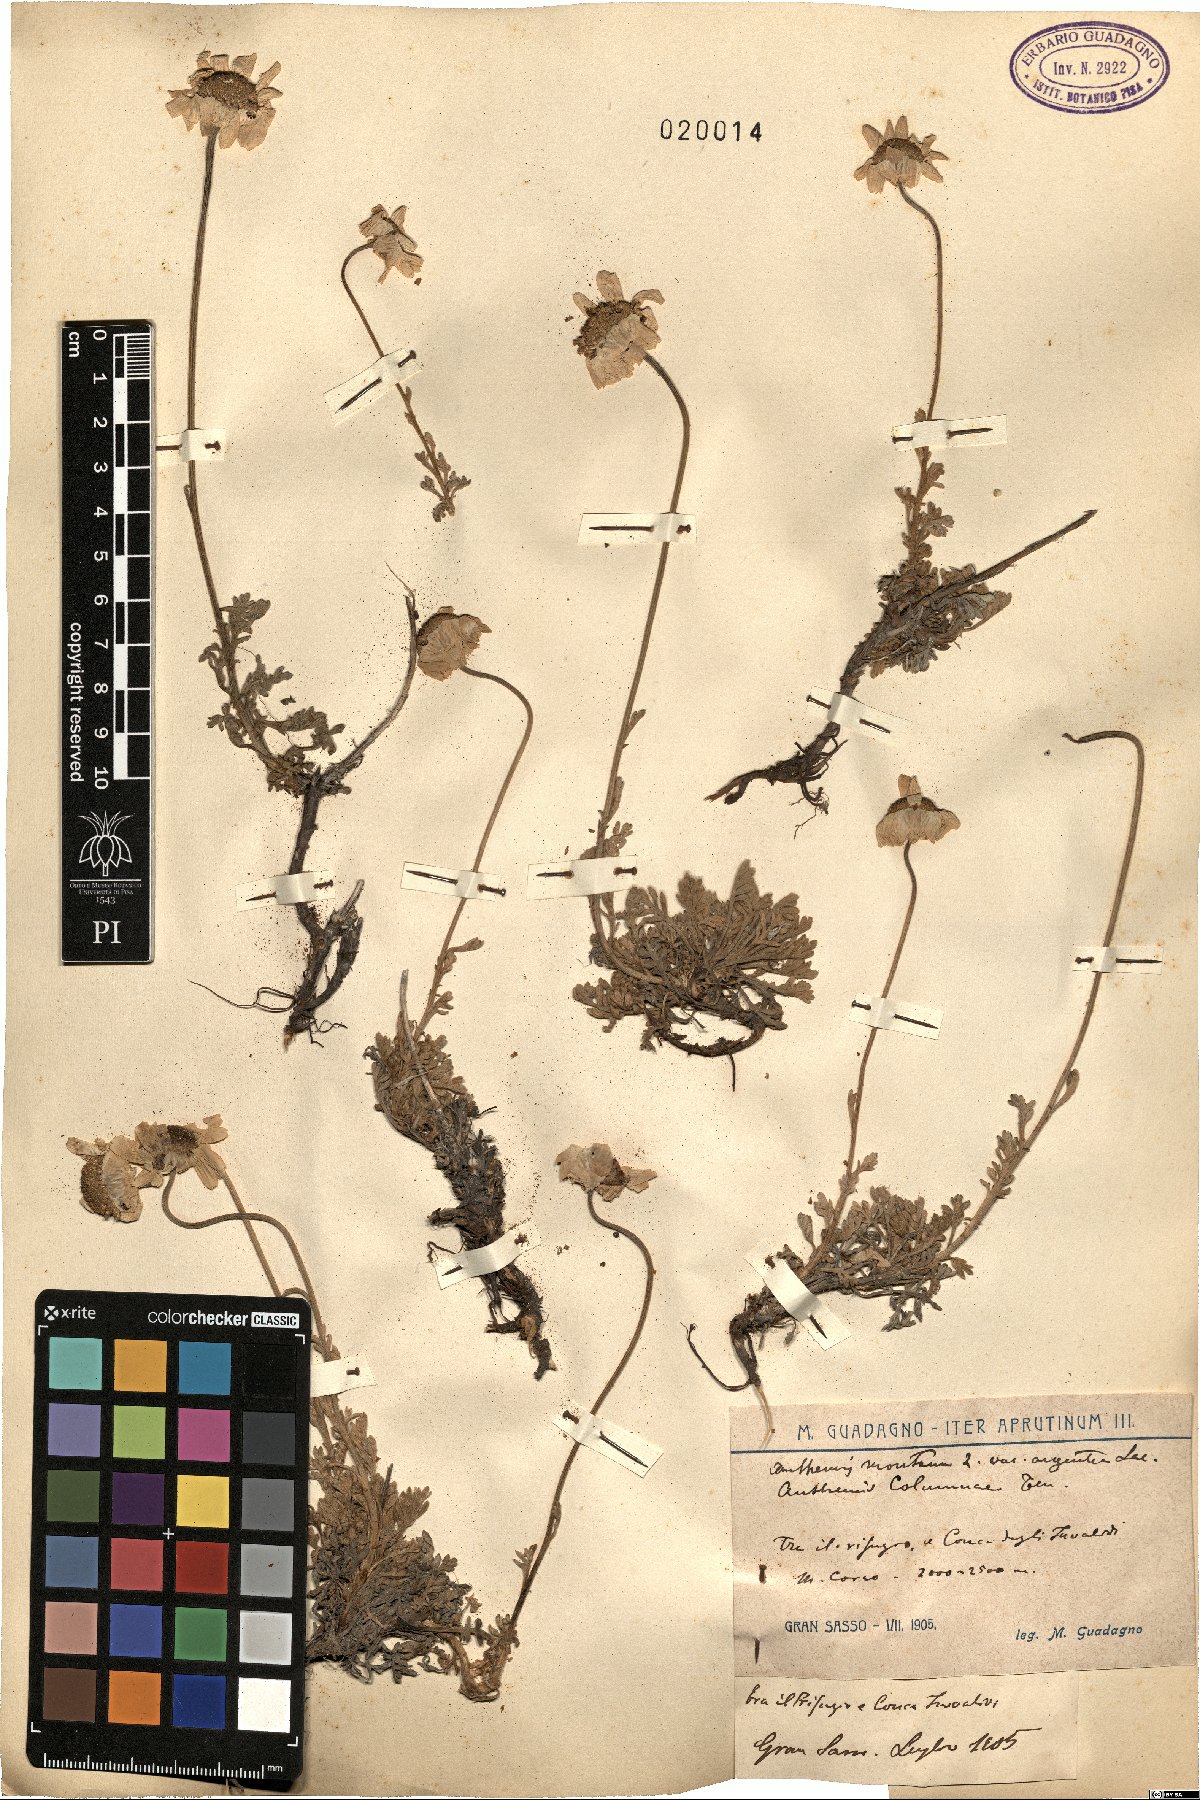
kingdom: Plantae
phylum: Tracheophyta
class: Magnoliopsida
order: Asterales
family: Asteraceae
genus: Anthemis
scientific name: Anthemis cretica
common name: Mountain dog-daisy
